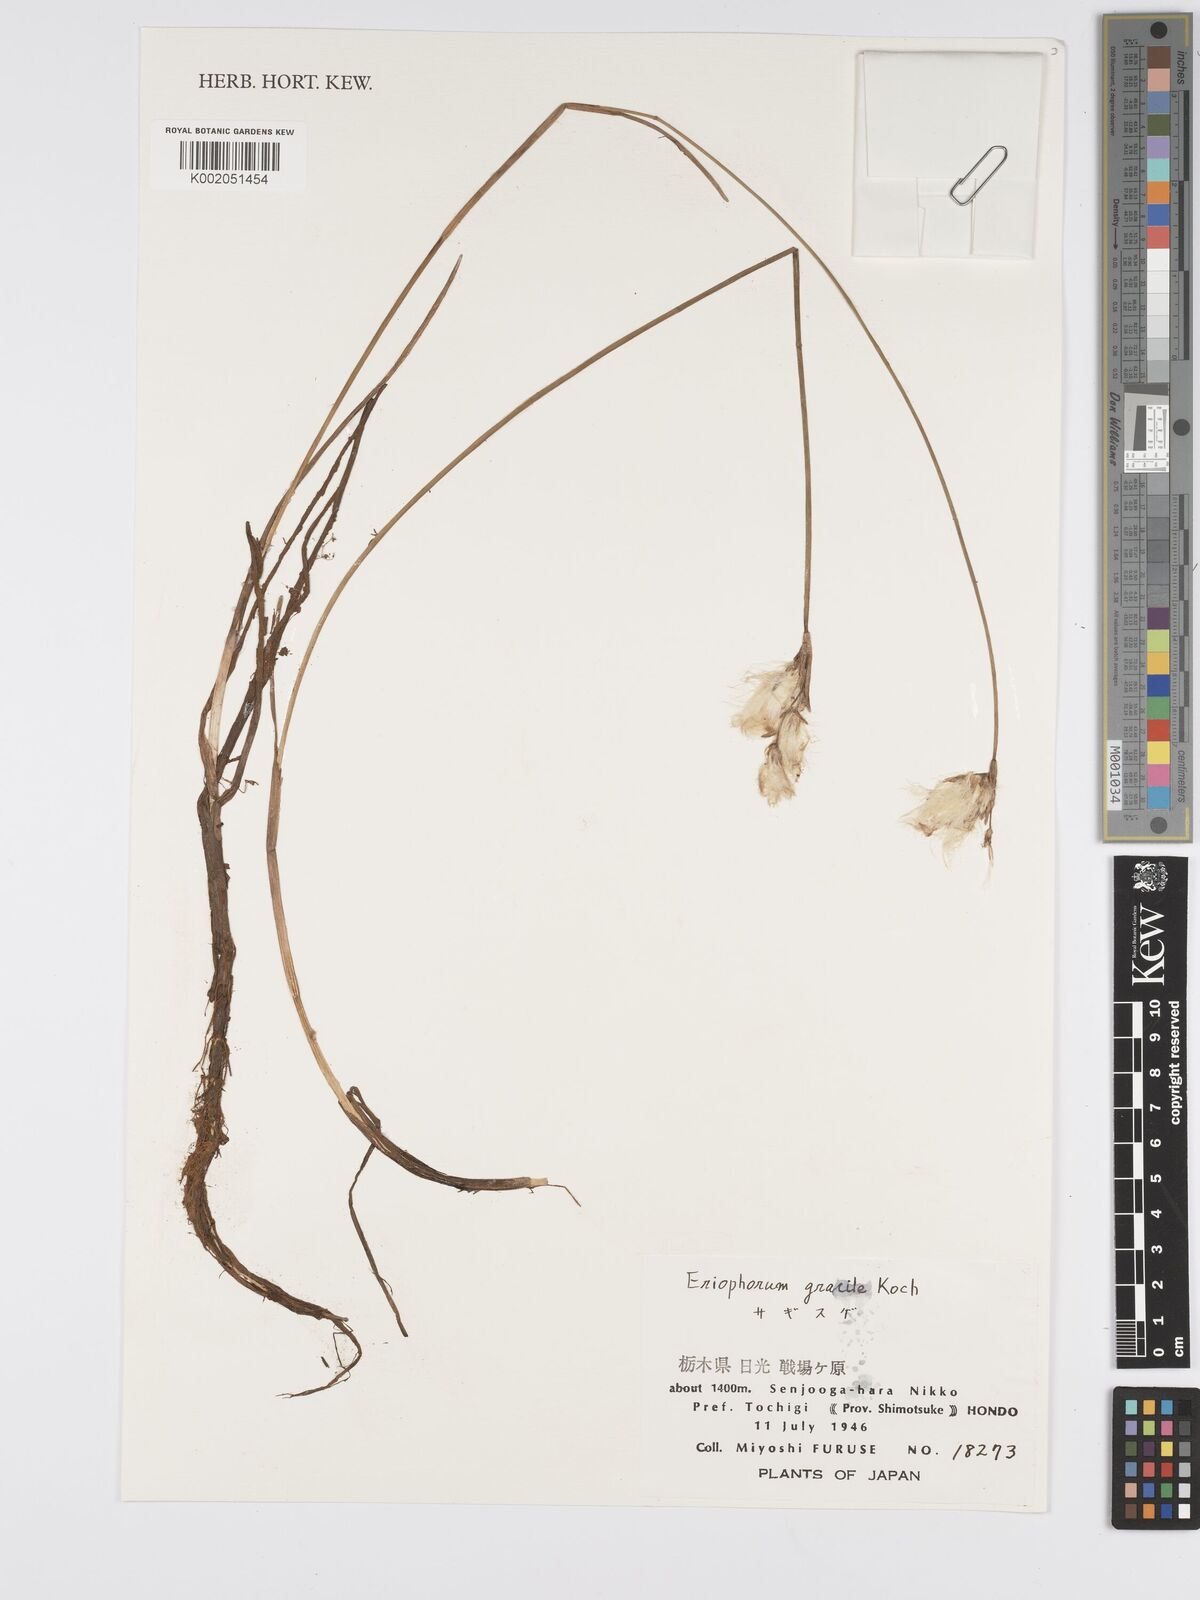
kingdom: Plantae
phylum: Tracheophyta
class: Liliopsida
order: Poales
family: Cyperaceae
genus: Eriophorum
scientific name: Eriophorum gracile
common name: Slender cottongrass
